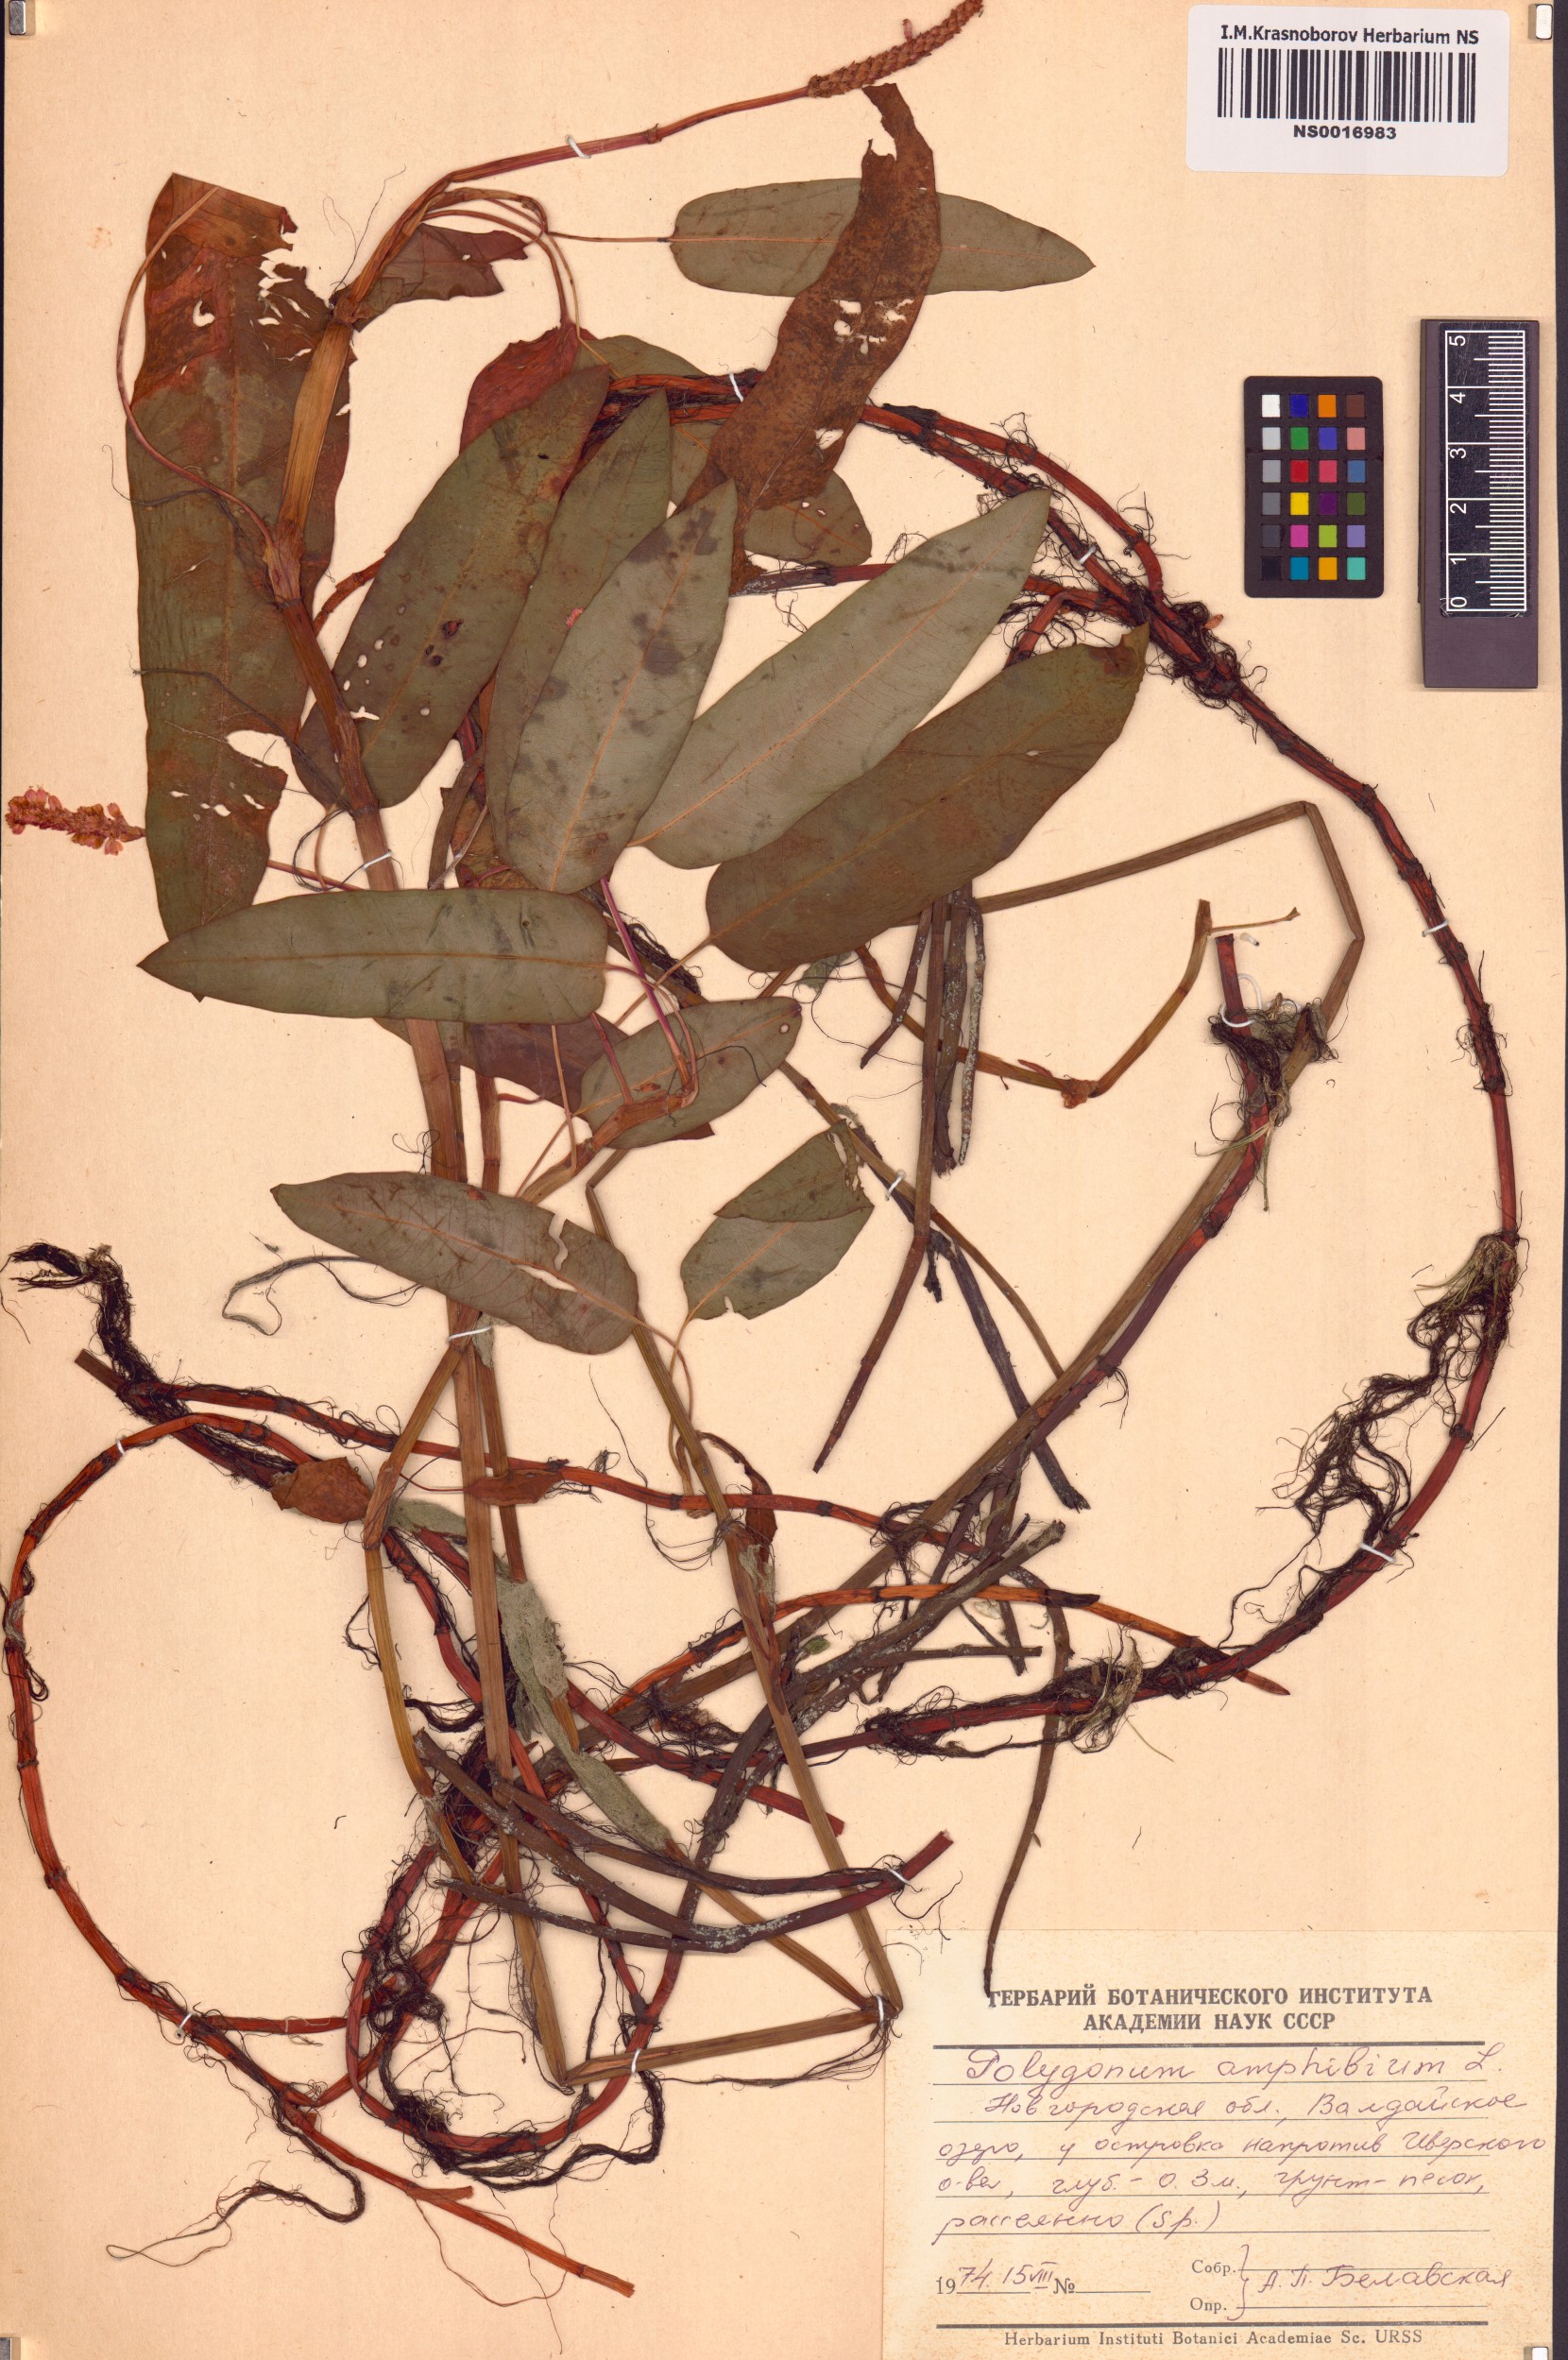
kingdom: Plantae
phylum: Tracheophyta
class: Magnoliopsida
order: Caryophyllales
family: Polygonaceae
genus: Persicaria
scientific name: Persicaria amphibia
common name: Amphibious bistort
